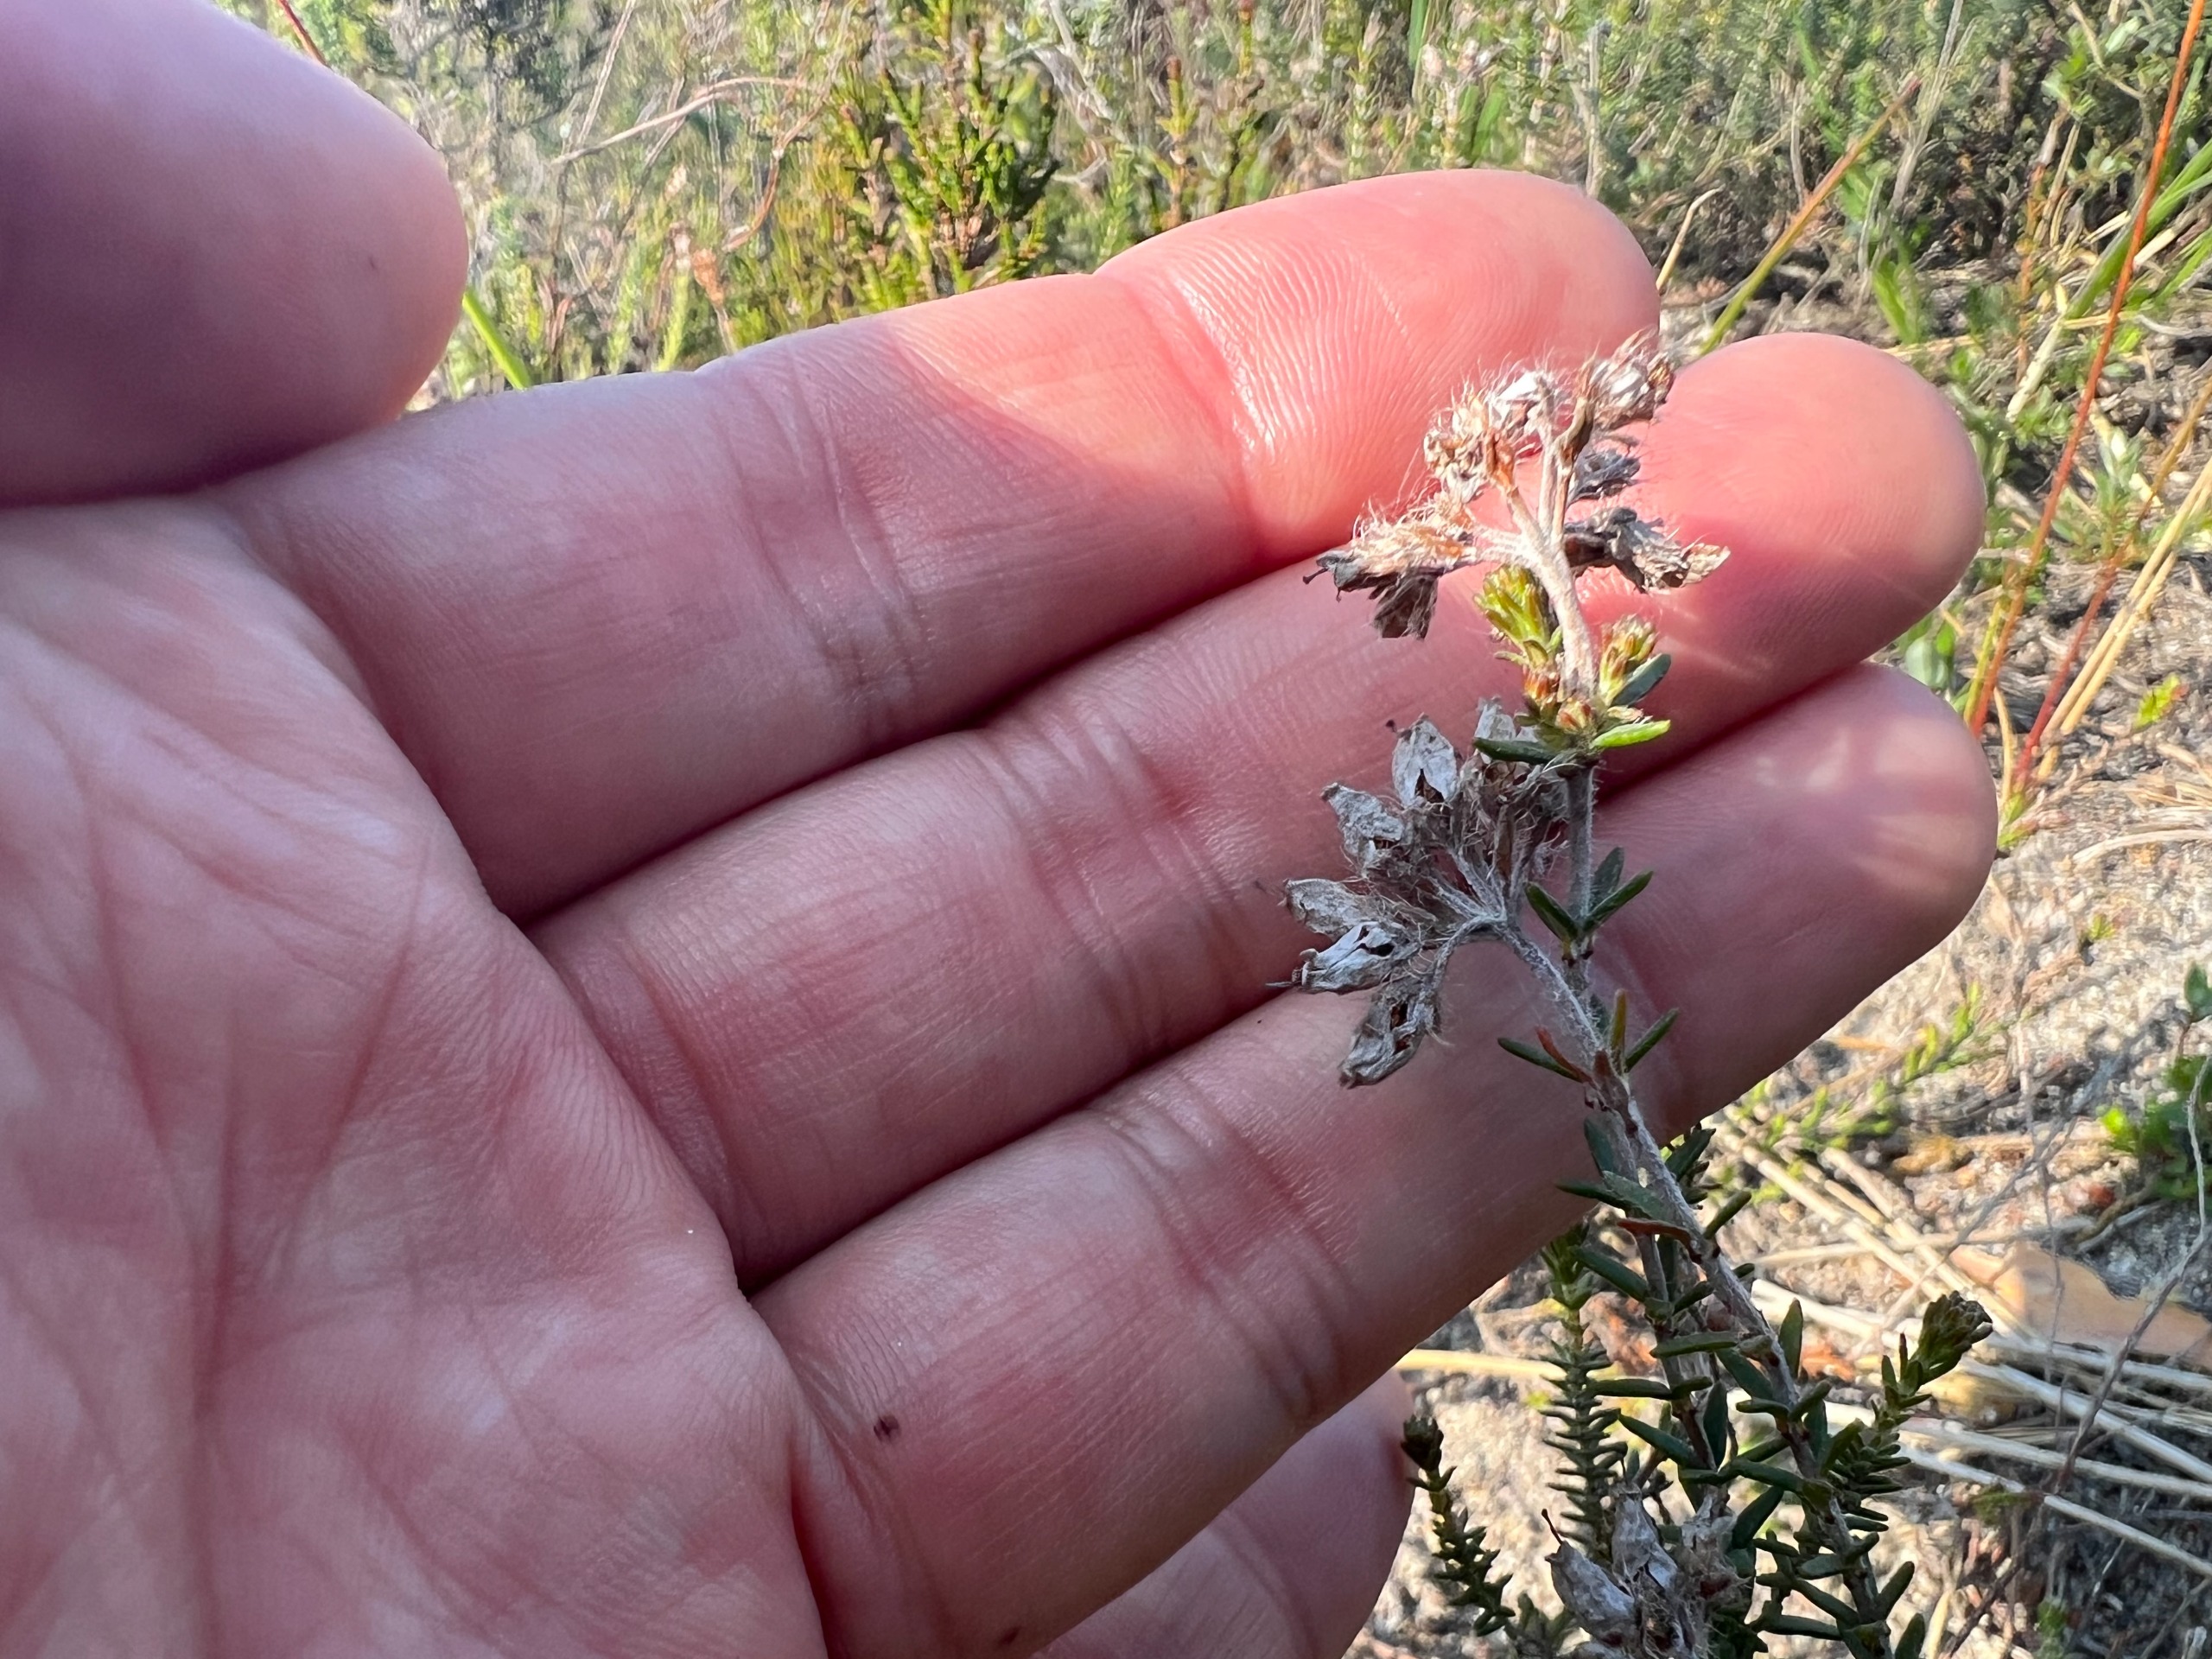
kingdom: Plantae
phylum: Tracheophyta
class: Magnoliopsida
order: Ericales
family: Ericaceae
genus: Erica
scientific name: Erica tetralix
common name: Klokkelyng
